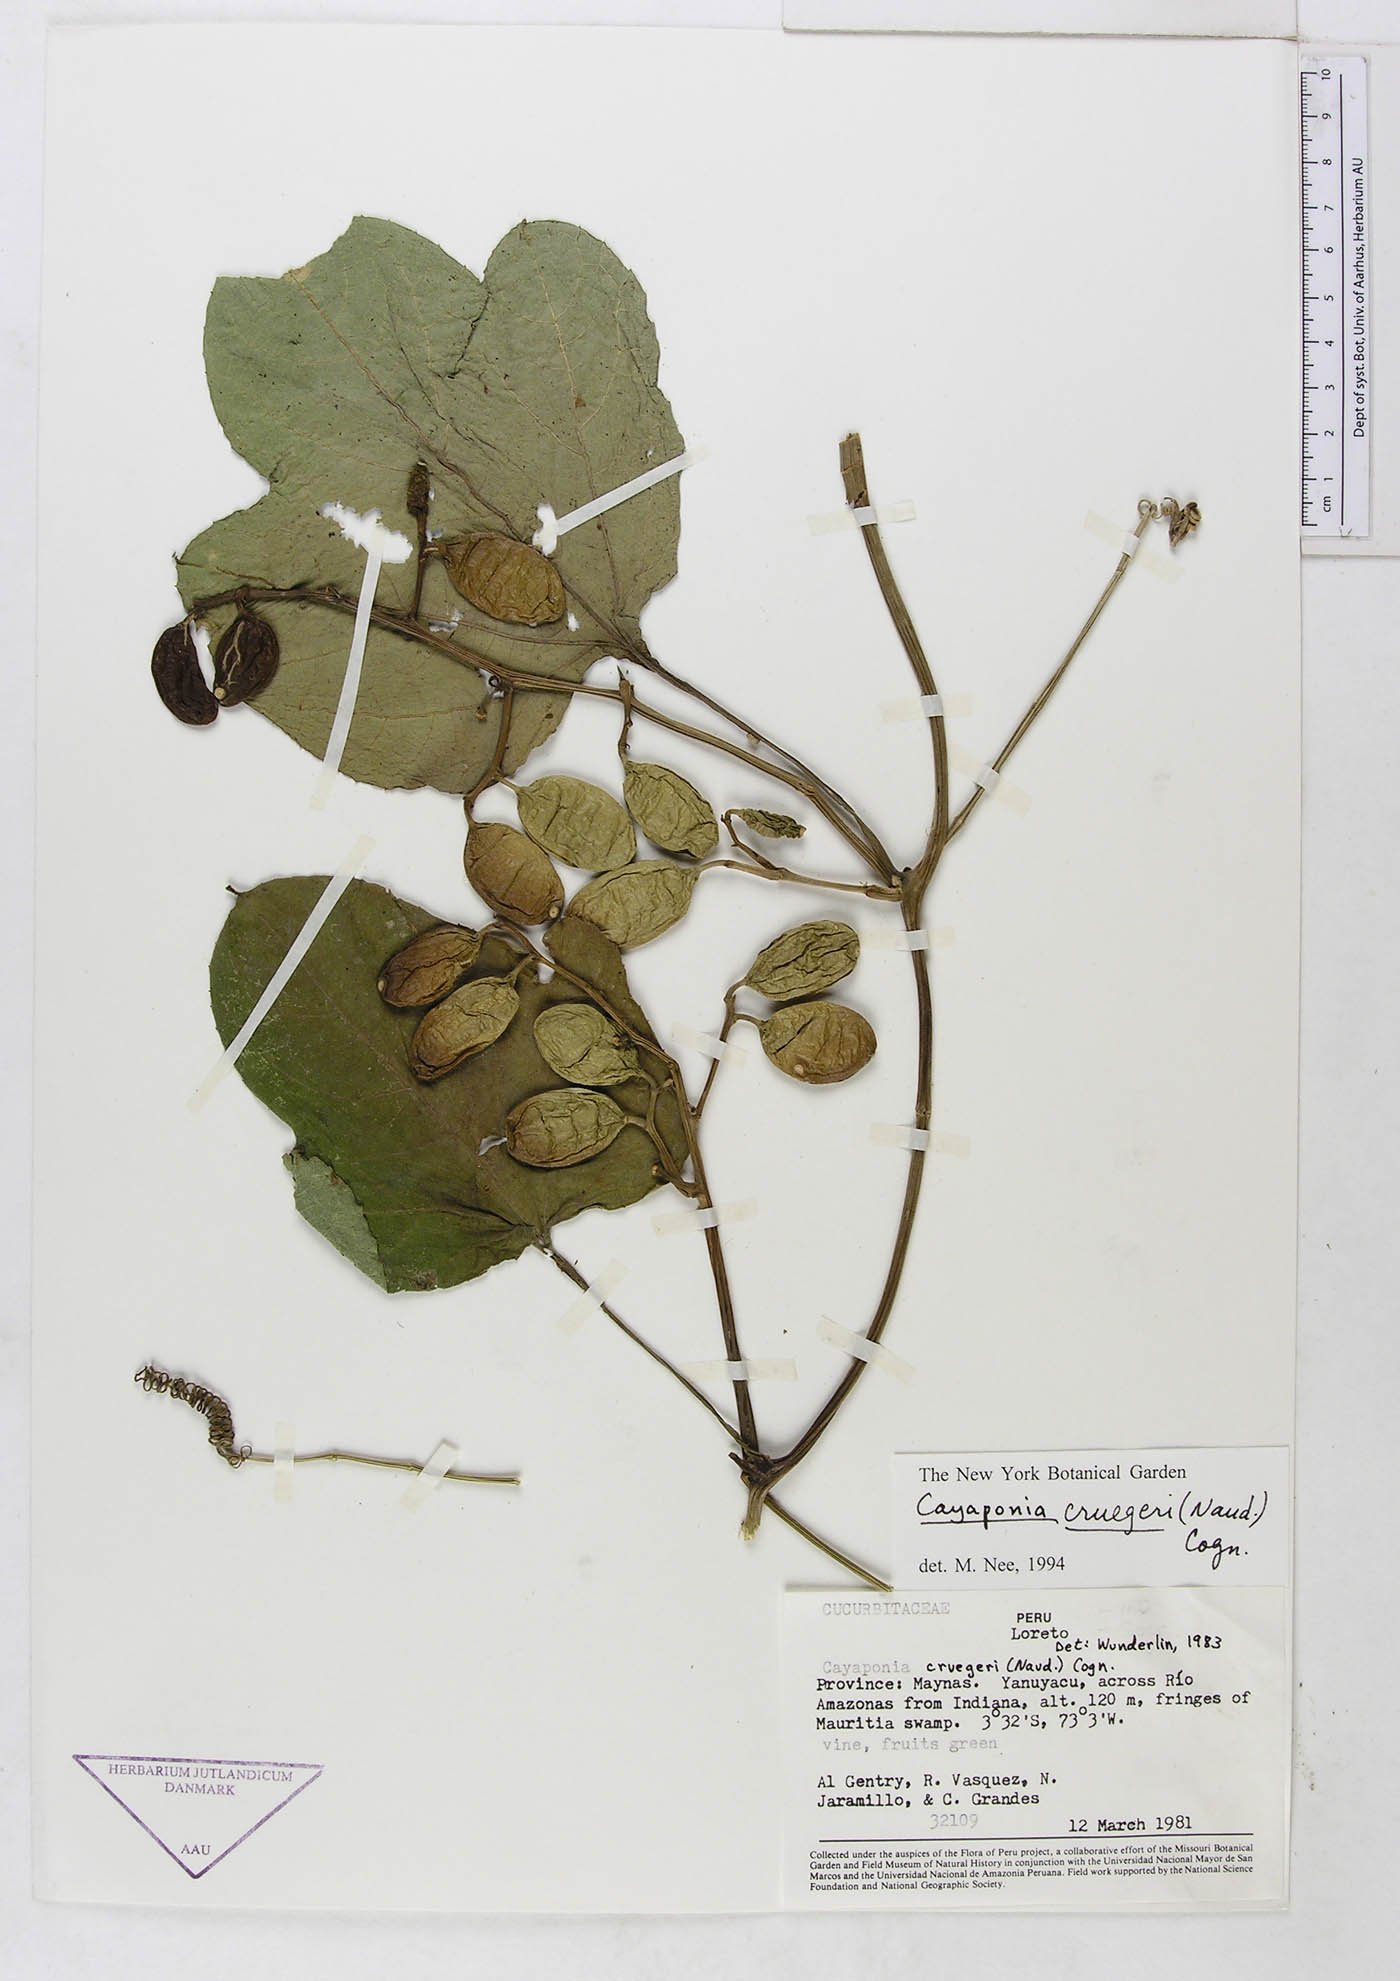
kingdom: Plantae
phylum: Tracheophyta
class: Magnoliopsida
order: Cucurbitales
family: Cucurbitaceae
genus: Cayaponia
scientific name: Cayaponia cruegeri
